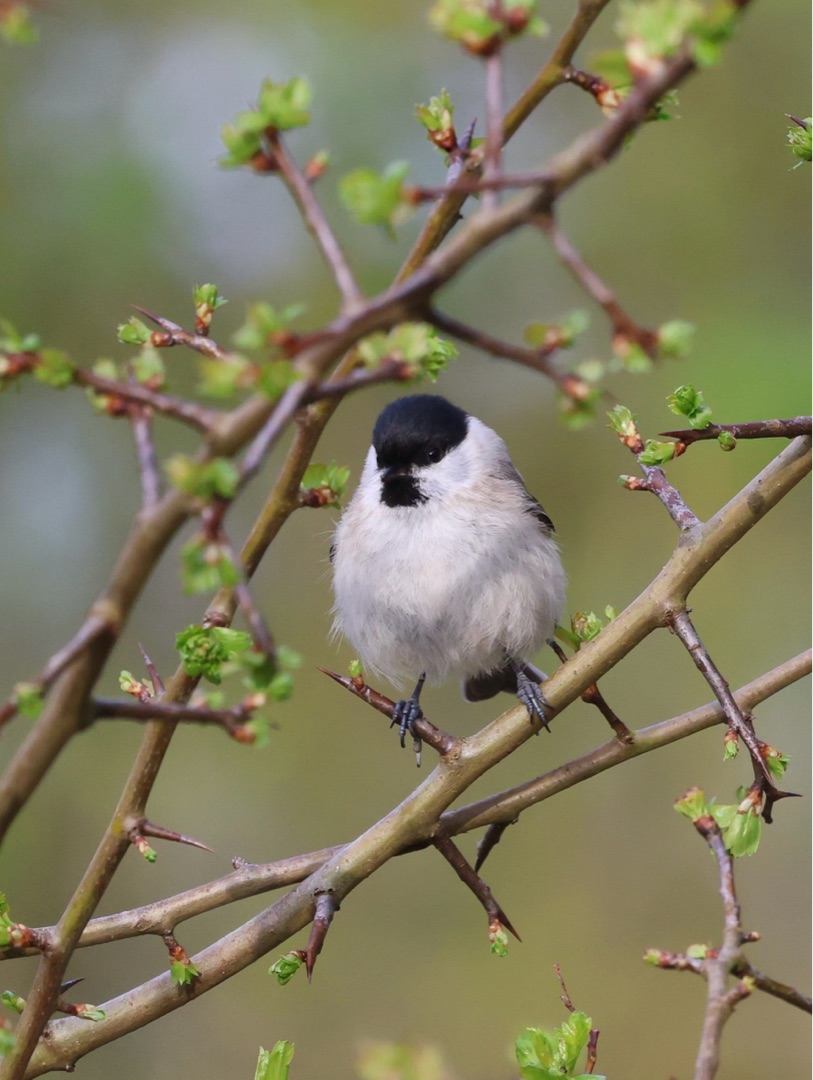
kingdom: Animalia
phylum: Chordata
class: Aves
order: Passeriformes
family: Paridae
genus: Poecile
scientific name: Poecile palustris
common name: Sumpmejse
